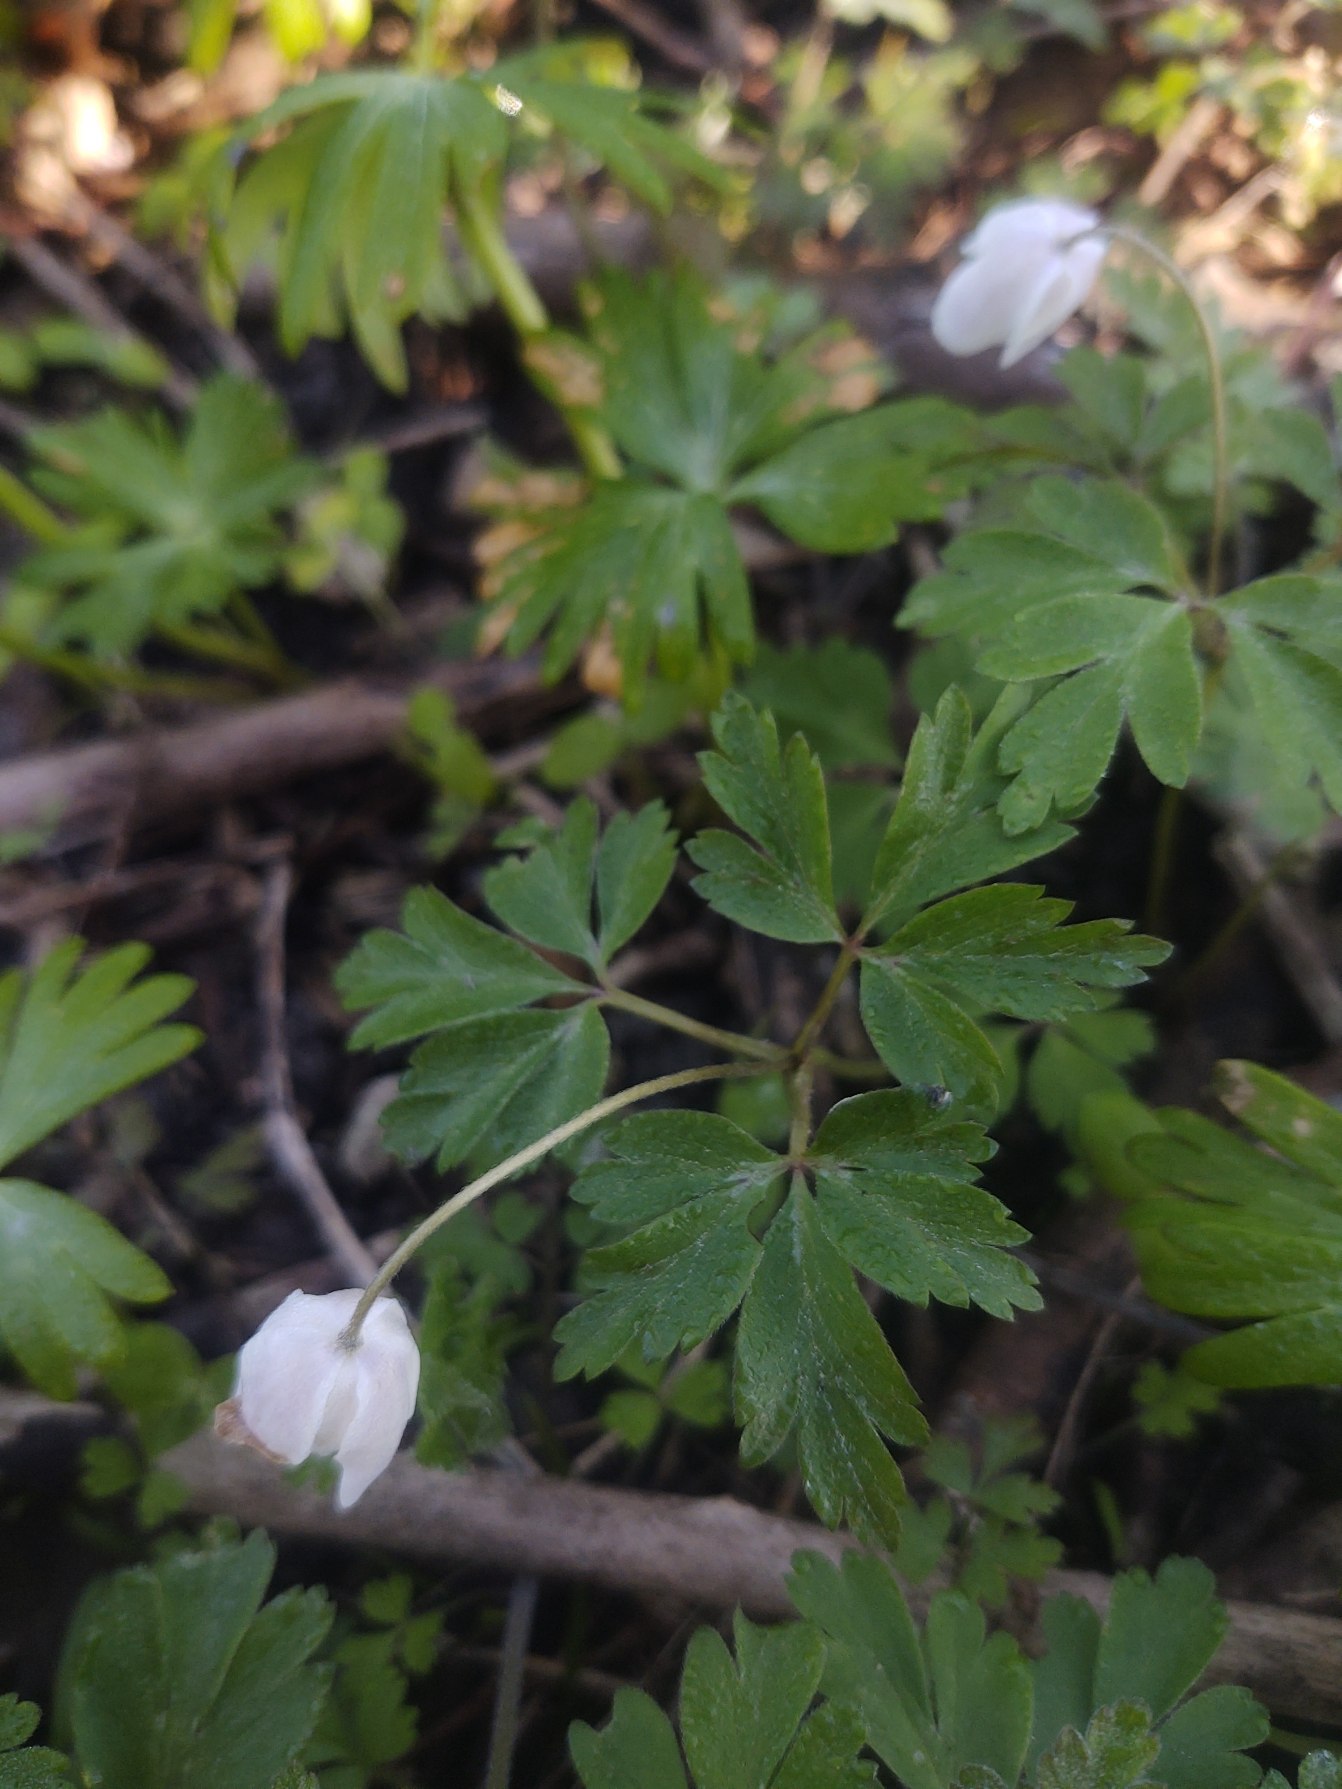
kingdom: Plantae
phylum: Tracheophyta
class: Magnoliopsida
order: Ranunculales
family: Ranunculaceae
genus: Anemone
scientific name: Anemone nemorosa
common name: Hvid anemone
